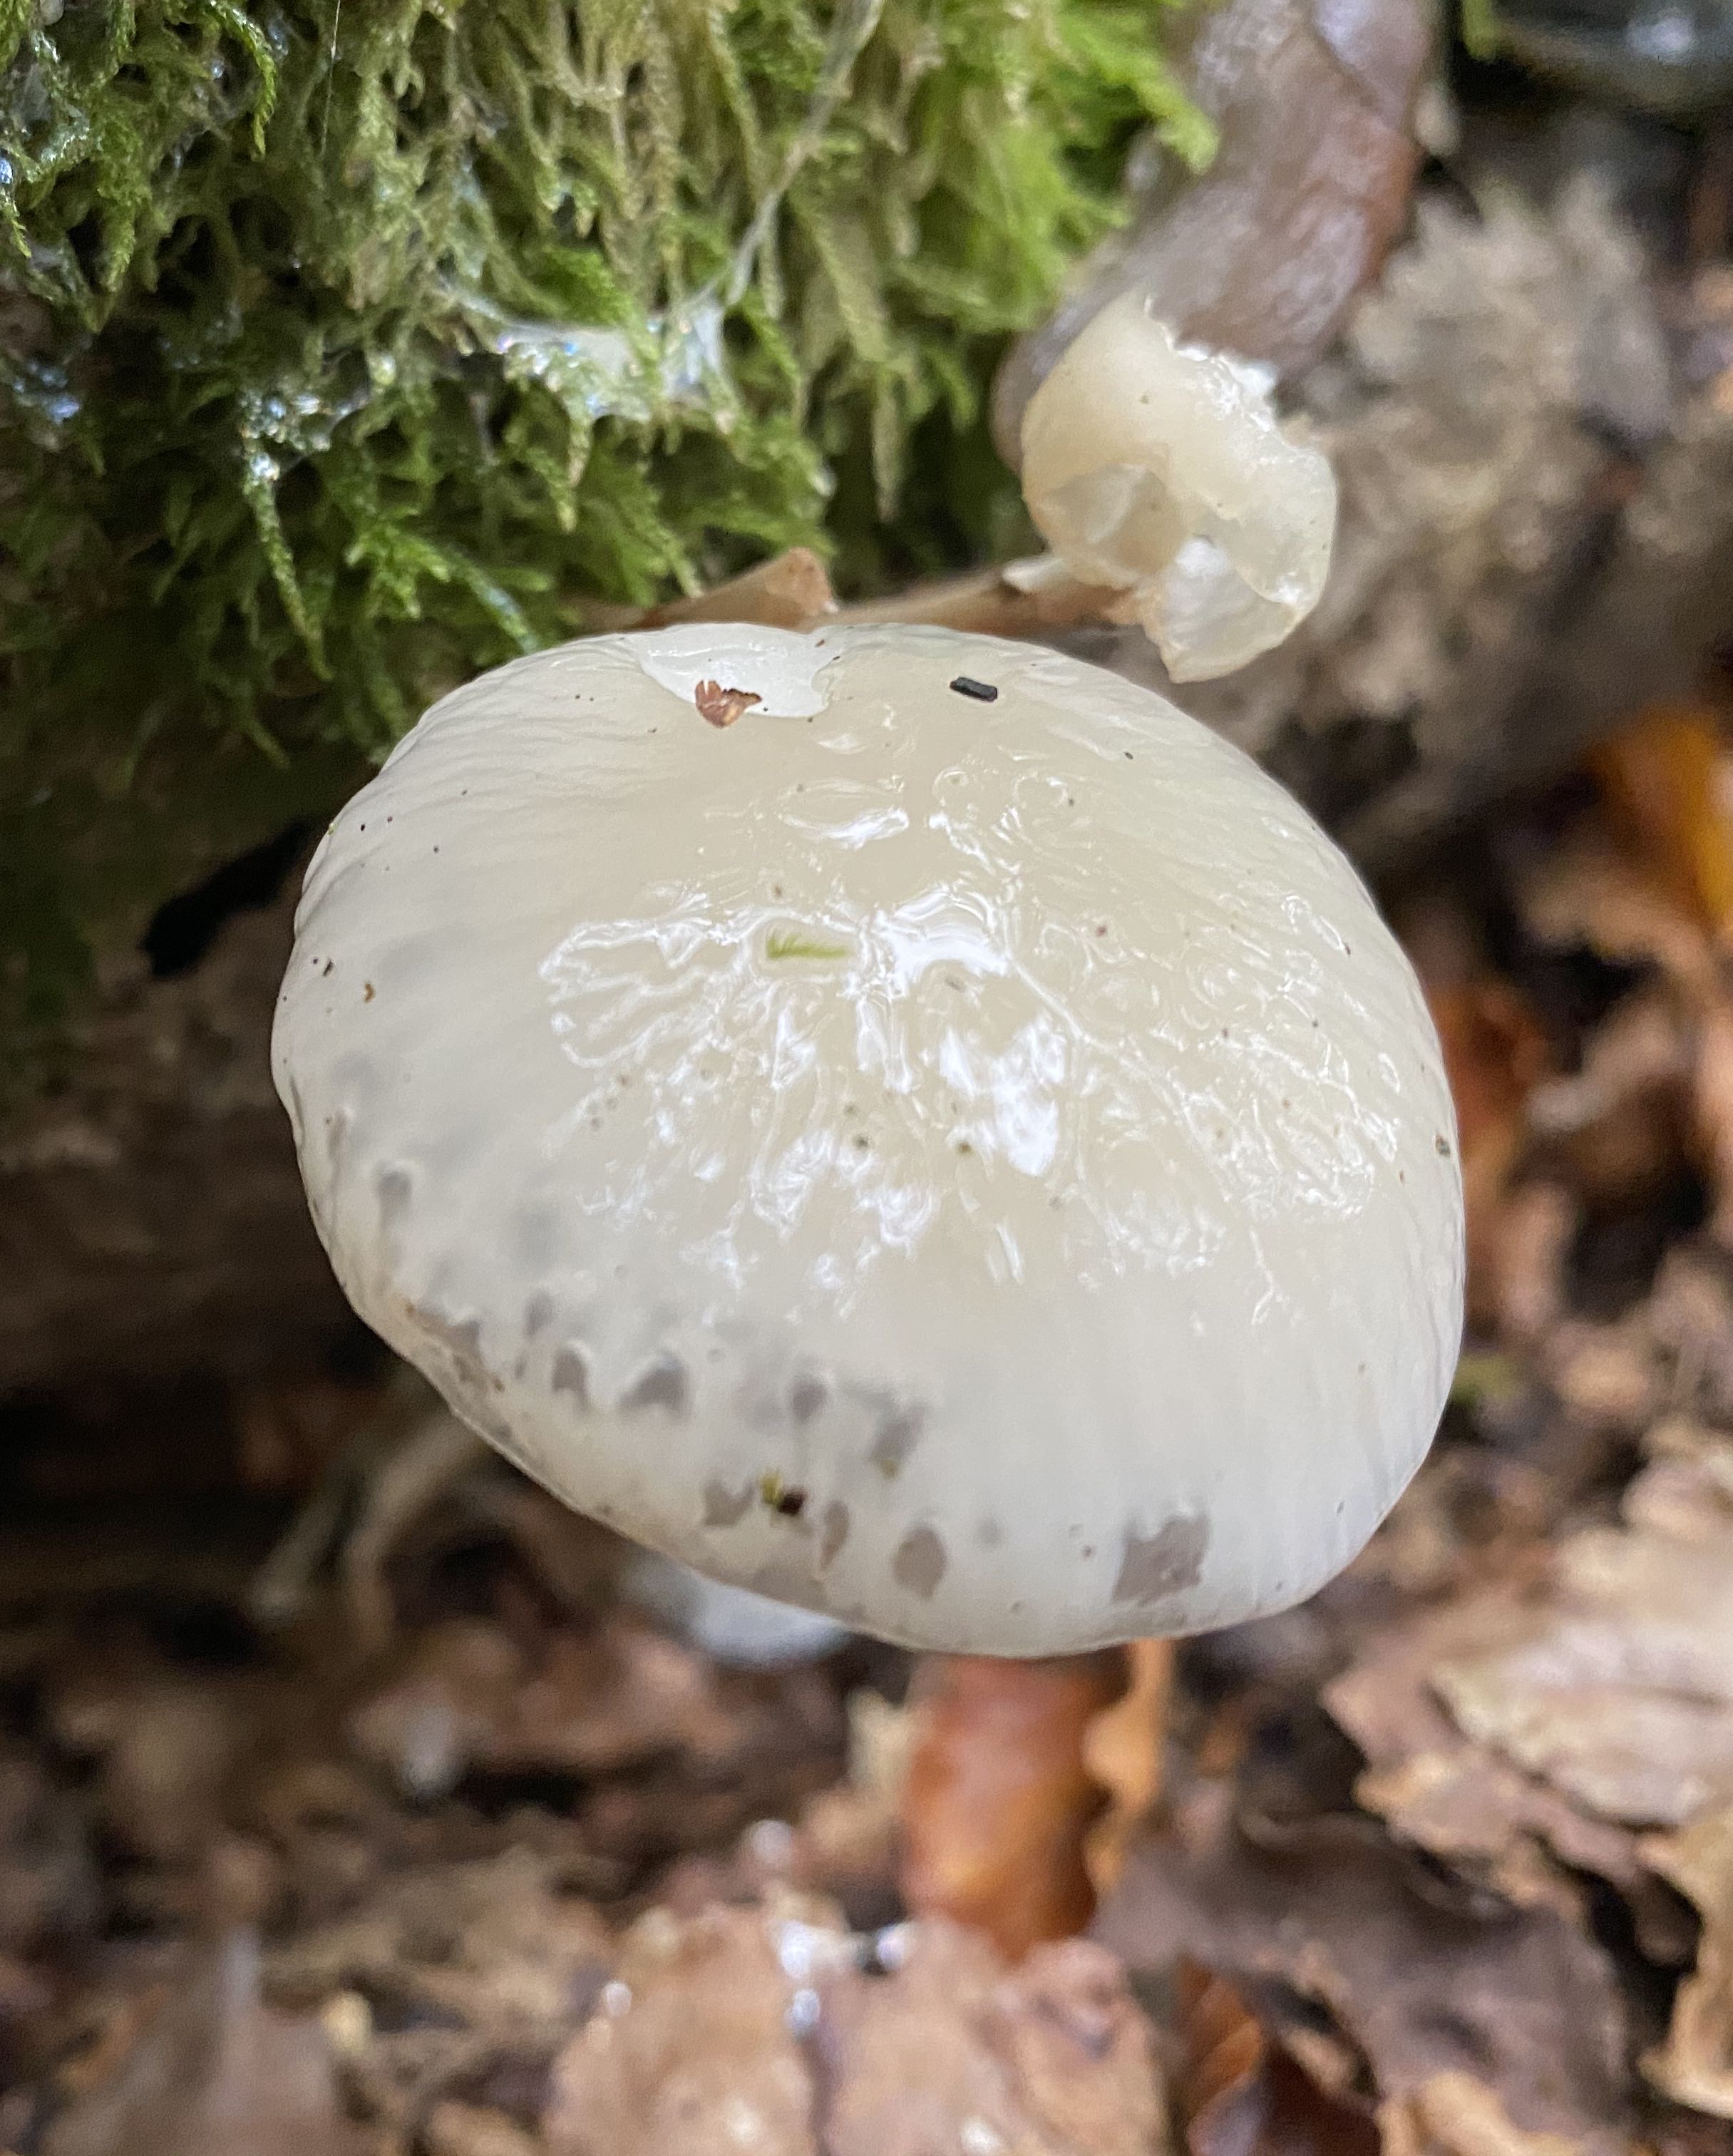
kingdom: Fungi
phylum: Basidiomycota
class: Agaricomycetes
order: Agaricales
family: Physalacriaceae
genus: Mucidula
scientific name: Mucidula mucida
